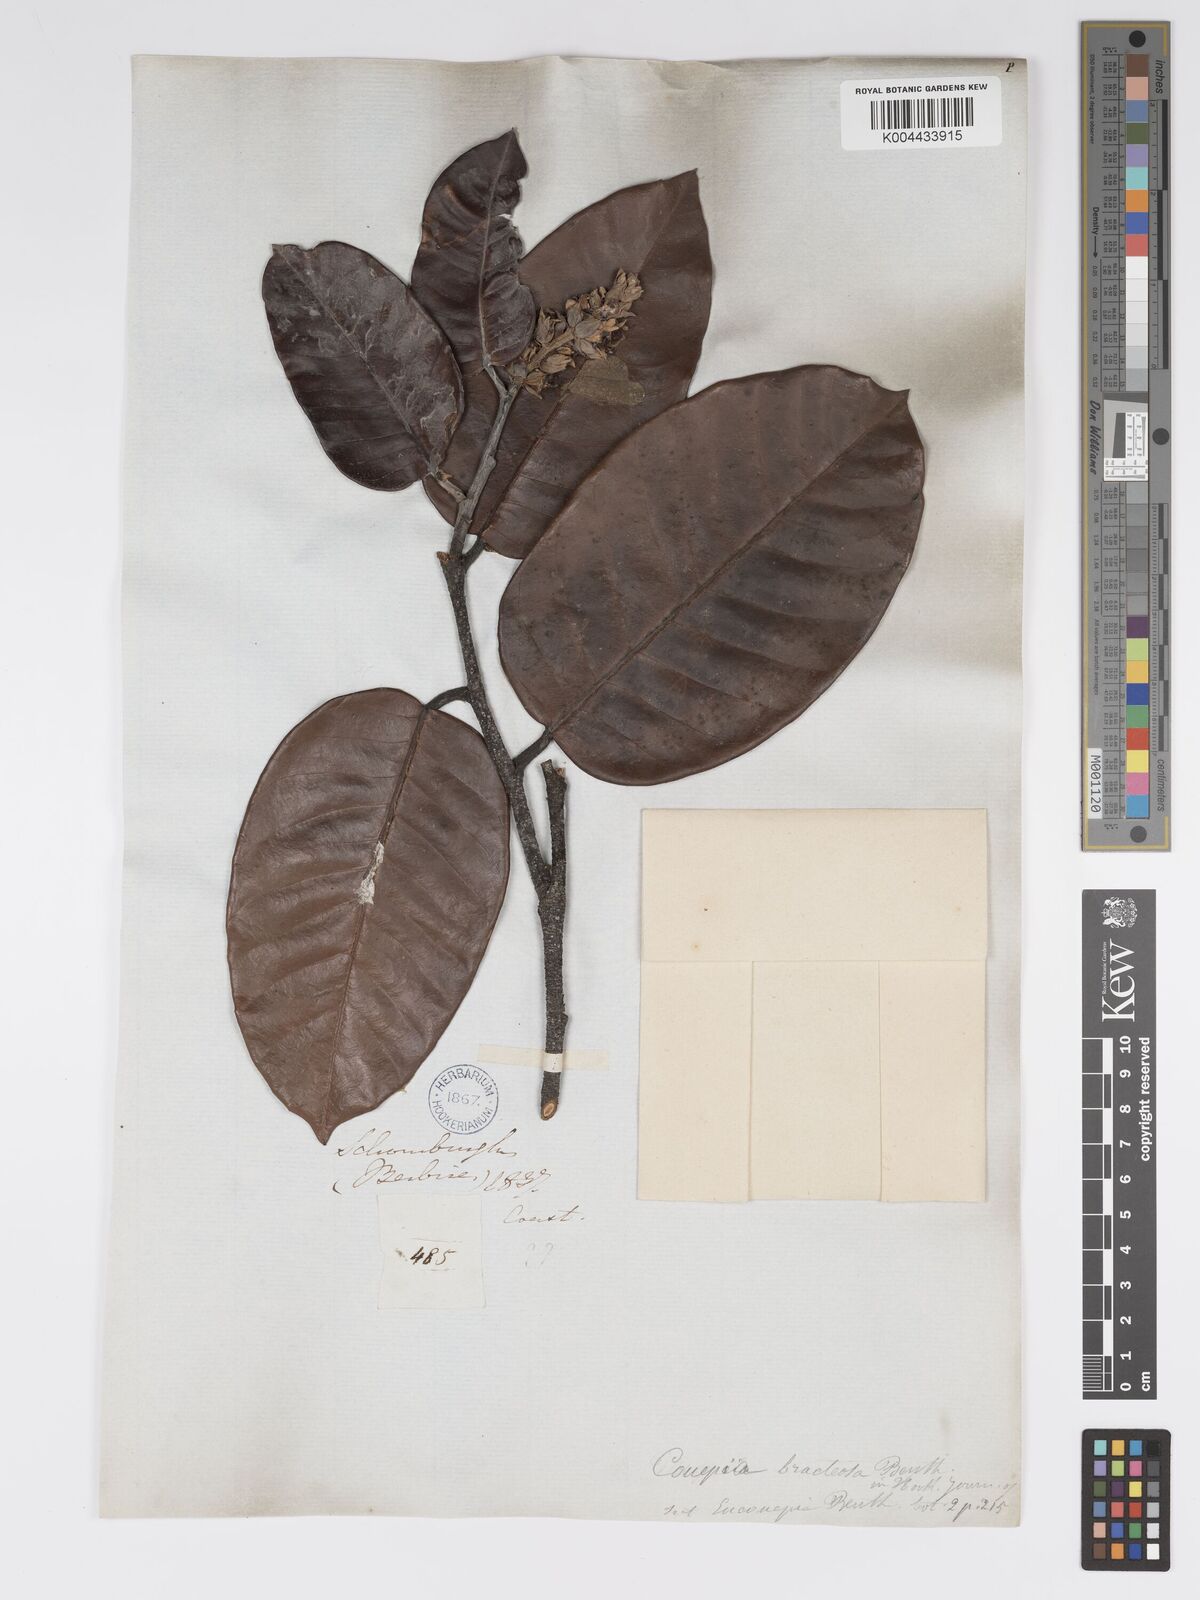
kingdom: Plantae
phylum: Tracheophyta
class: Magnoliopsida
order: Malpighiales
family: Chrysobalanaceae
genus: Couepia
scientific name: Couepia bracteosa
